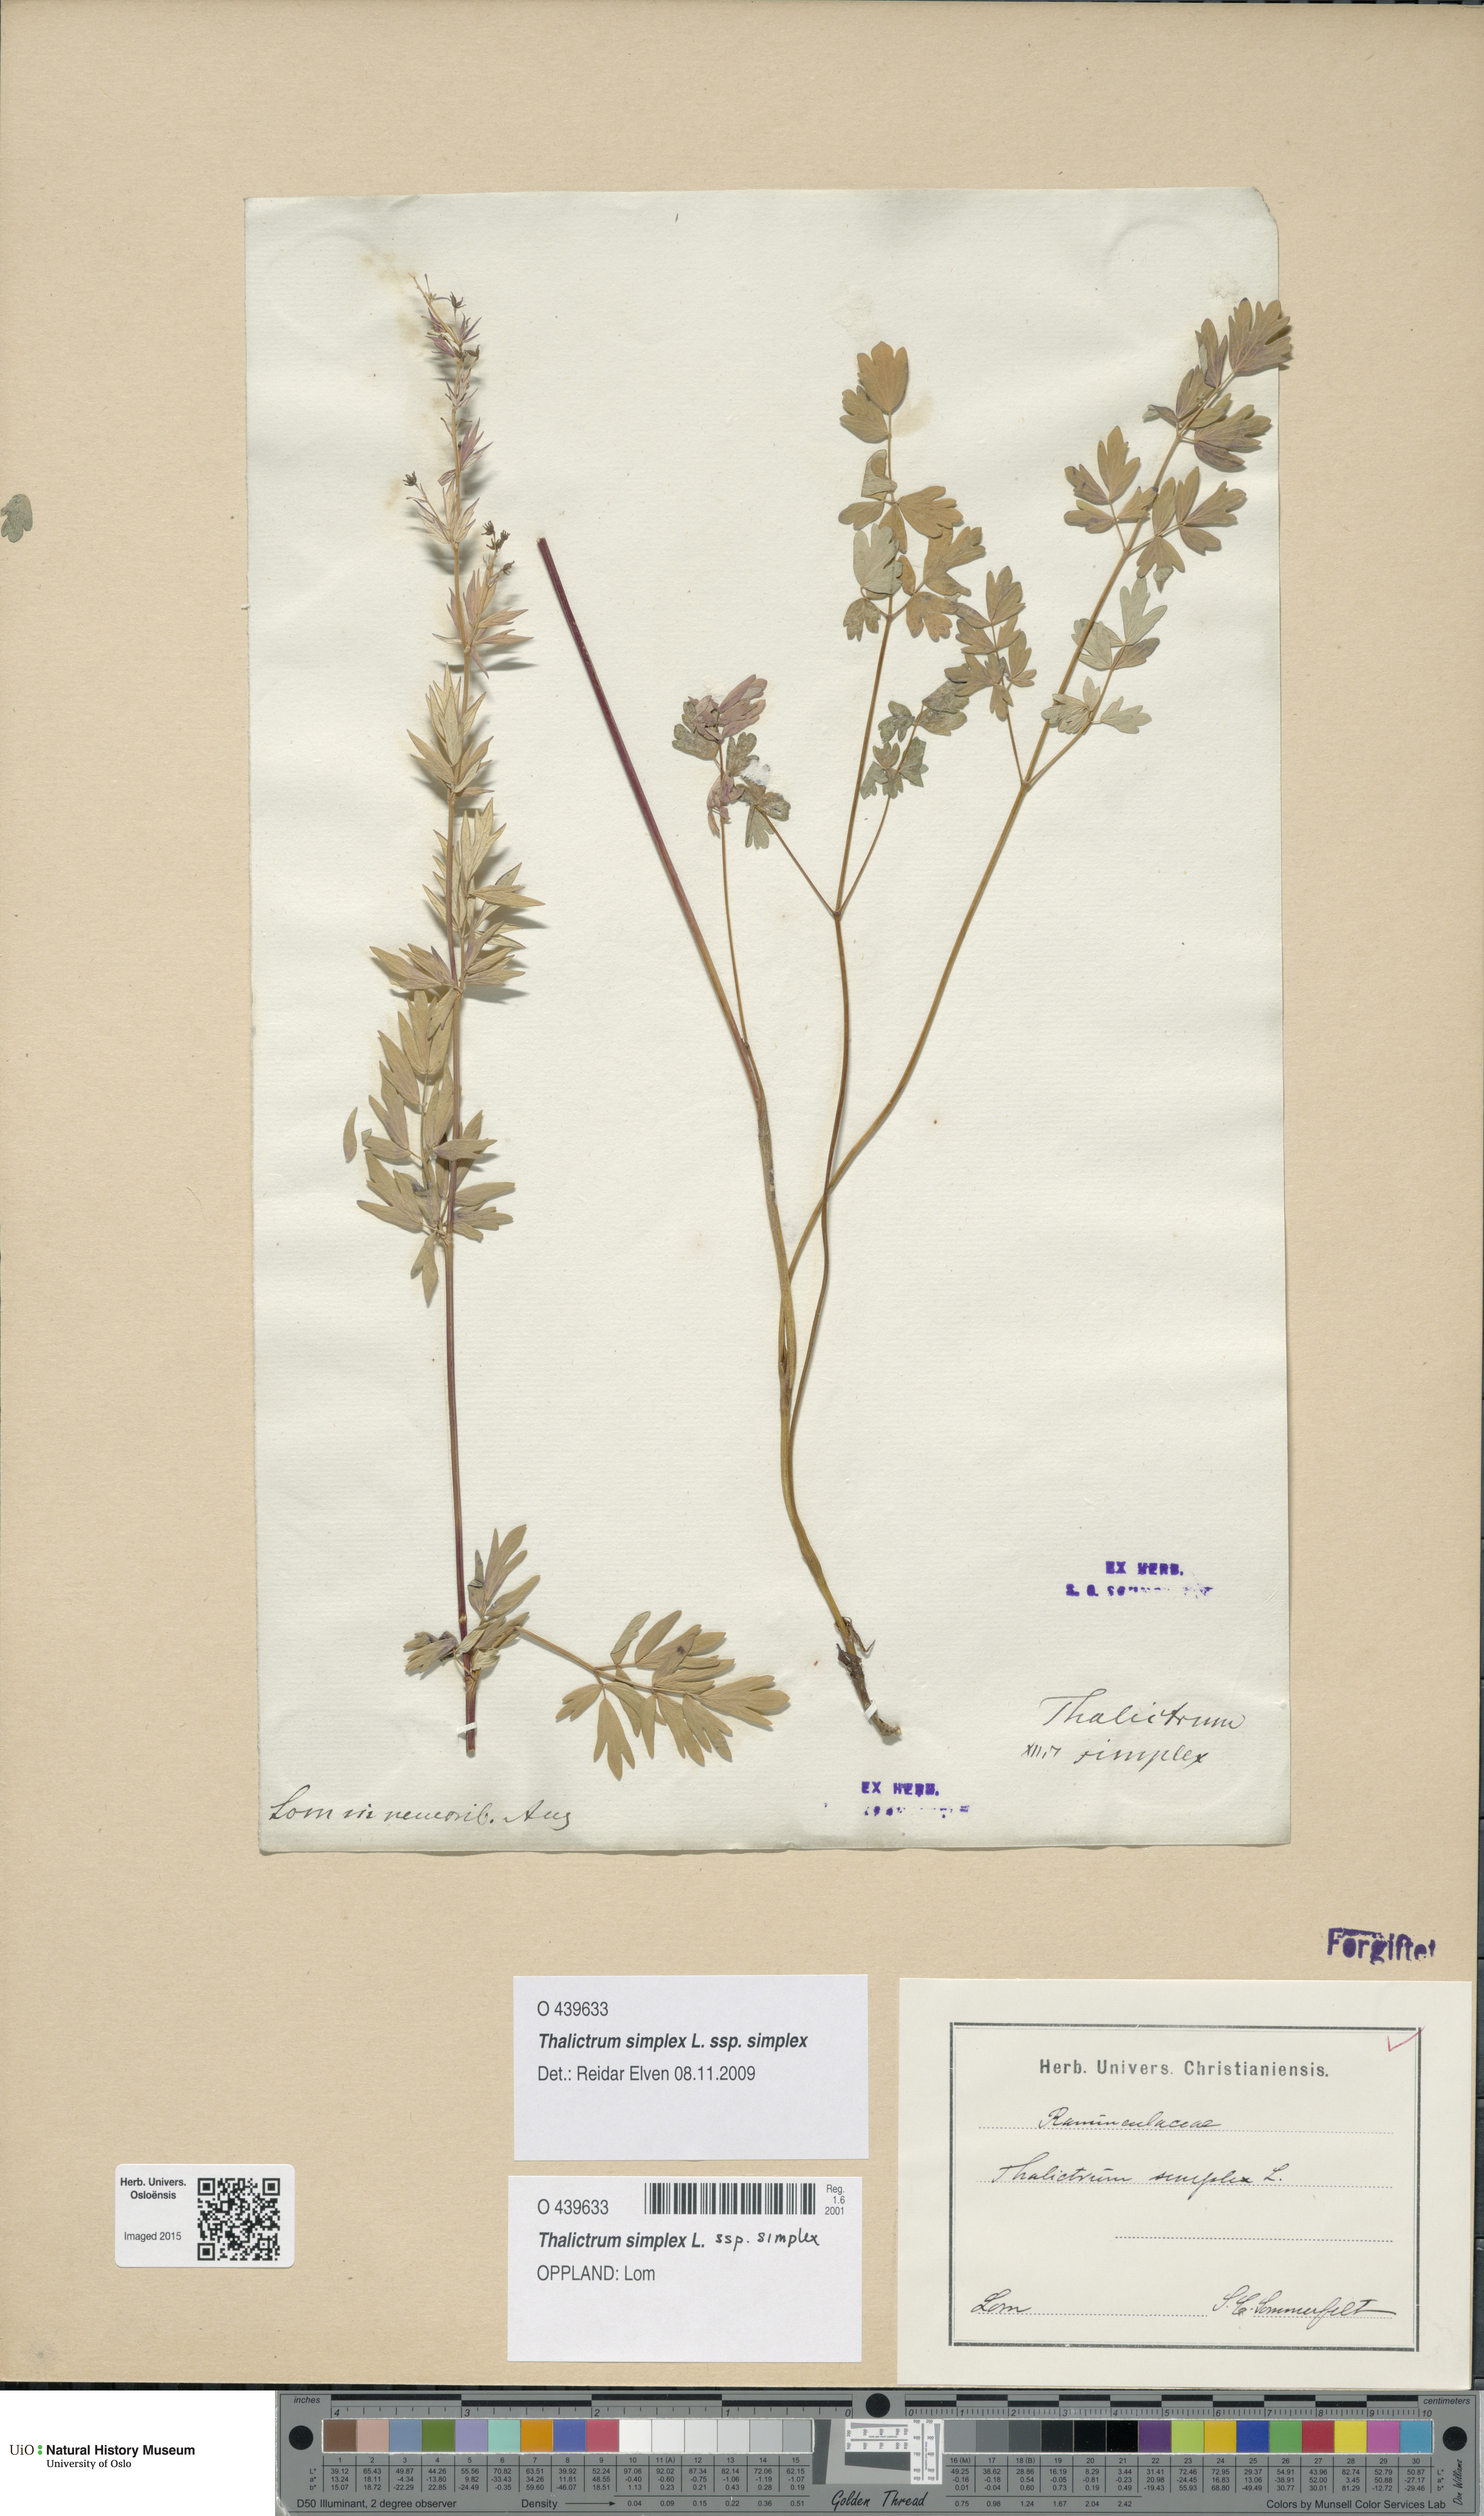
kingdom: Plantae
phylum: Tracheophyta
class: Magnoliopsida
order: Ranunculales
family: Ranunculaceae
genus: Thalictrum
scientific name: Thalictrum simplex
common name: Small meadow-rue
